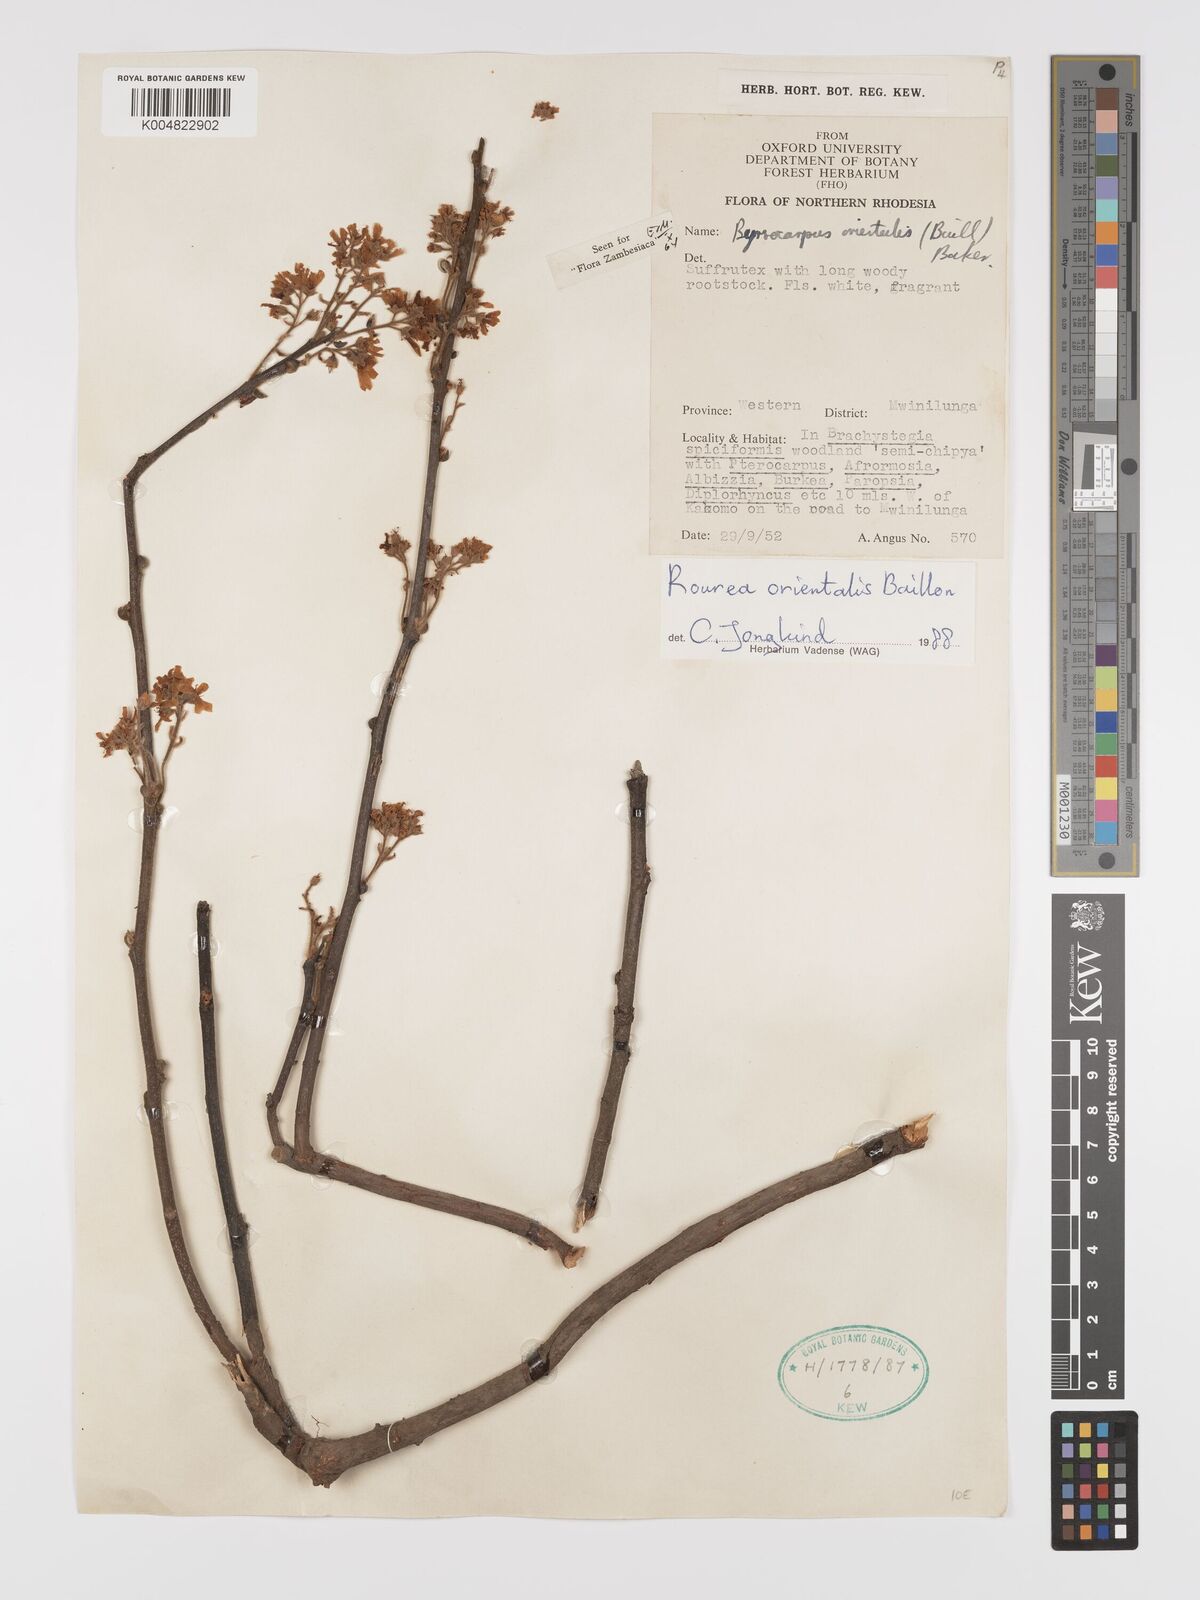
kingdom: Plantae
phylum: Tracheophyta
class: Magnoliopsida
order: Oxalidales
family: Connaraceae
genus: Rourea
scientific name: Rourea orientalis
